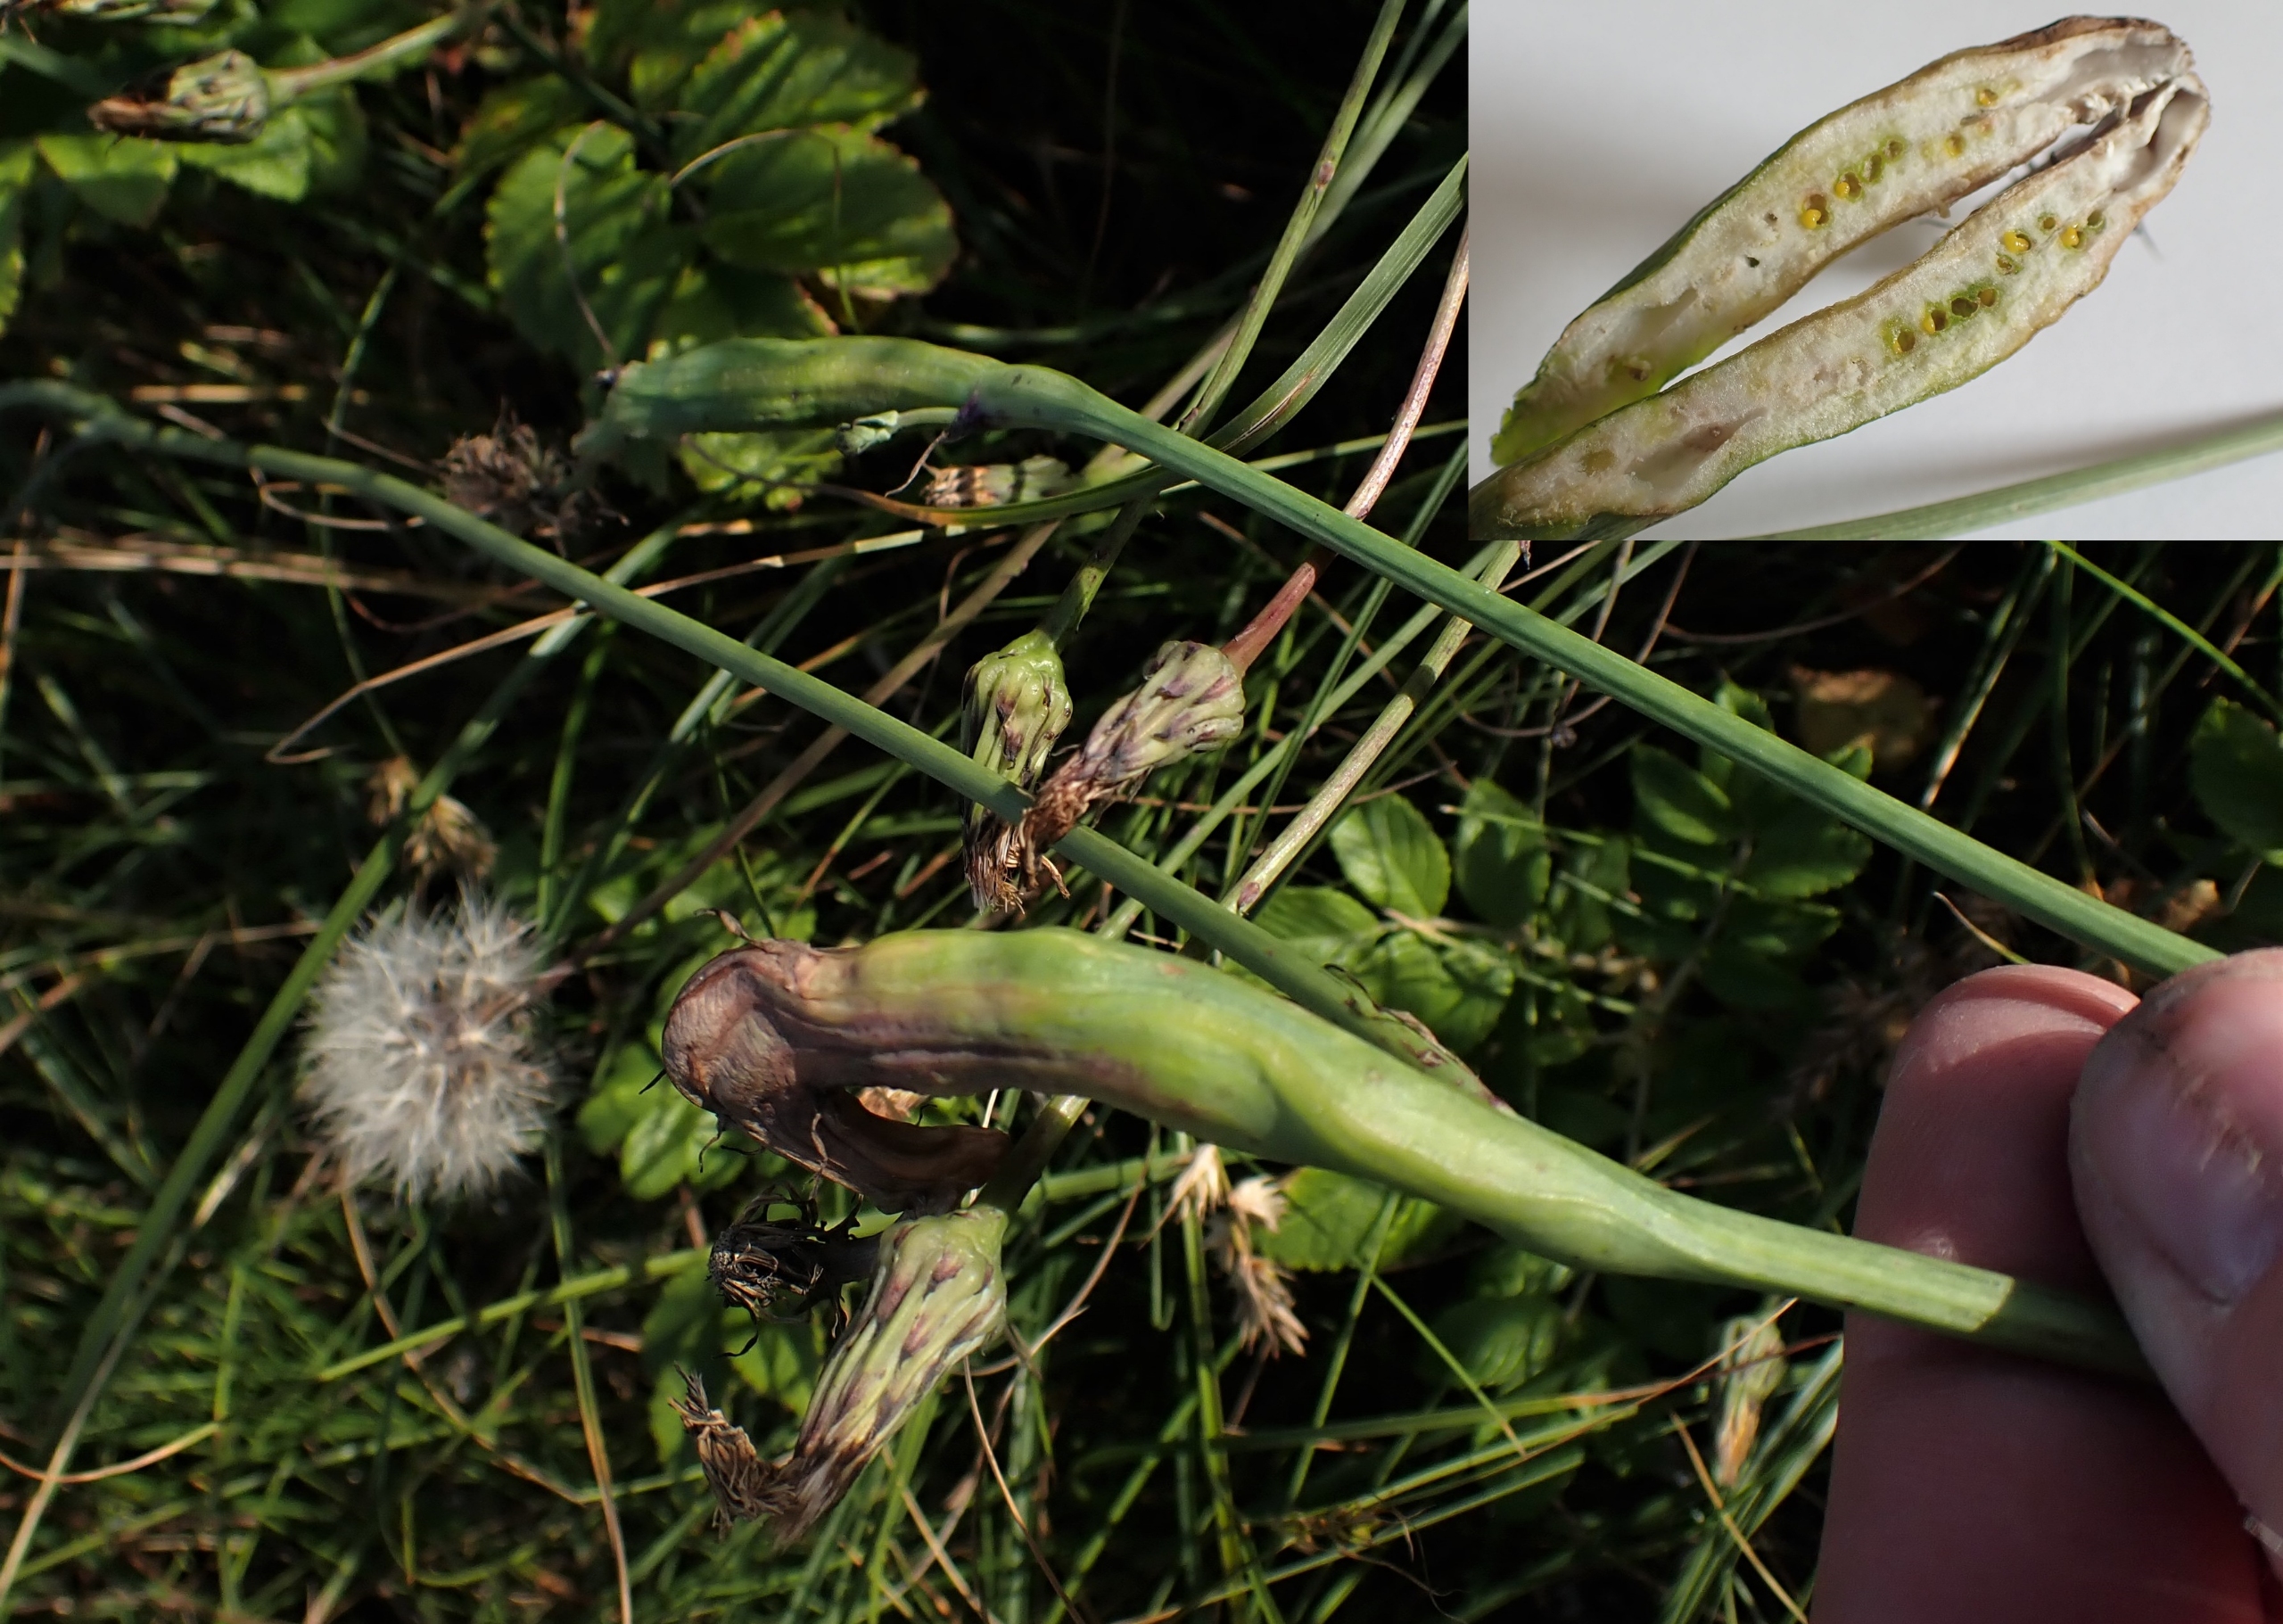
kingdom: Animalia
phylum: Arthropoda
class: Insecta
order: Hymenoptera
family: Cynipidae
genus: Phanacis
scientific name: Phanacis hypochoeridis
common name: Kongepengalhveps
